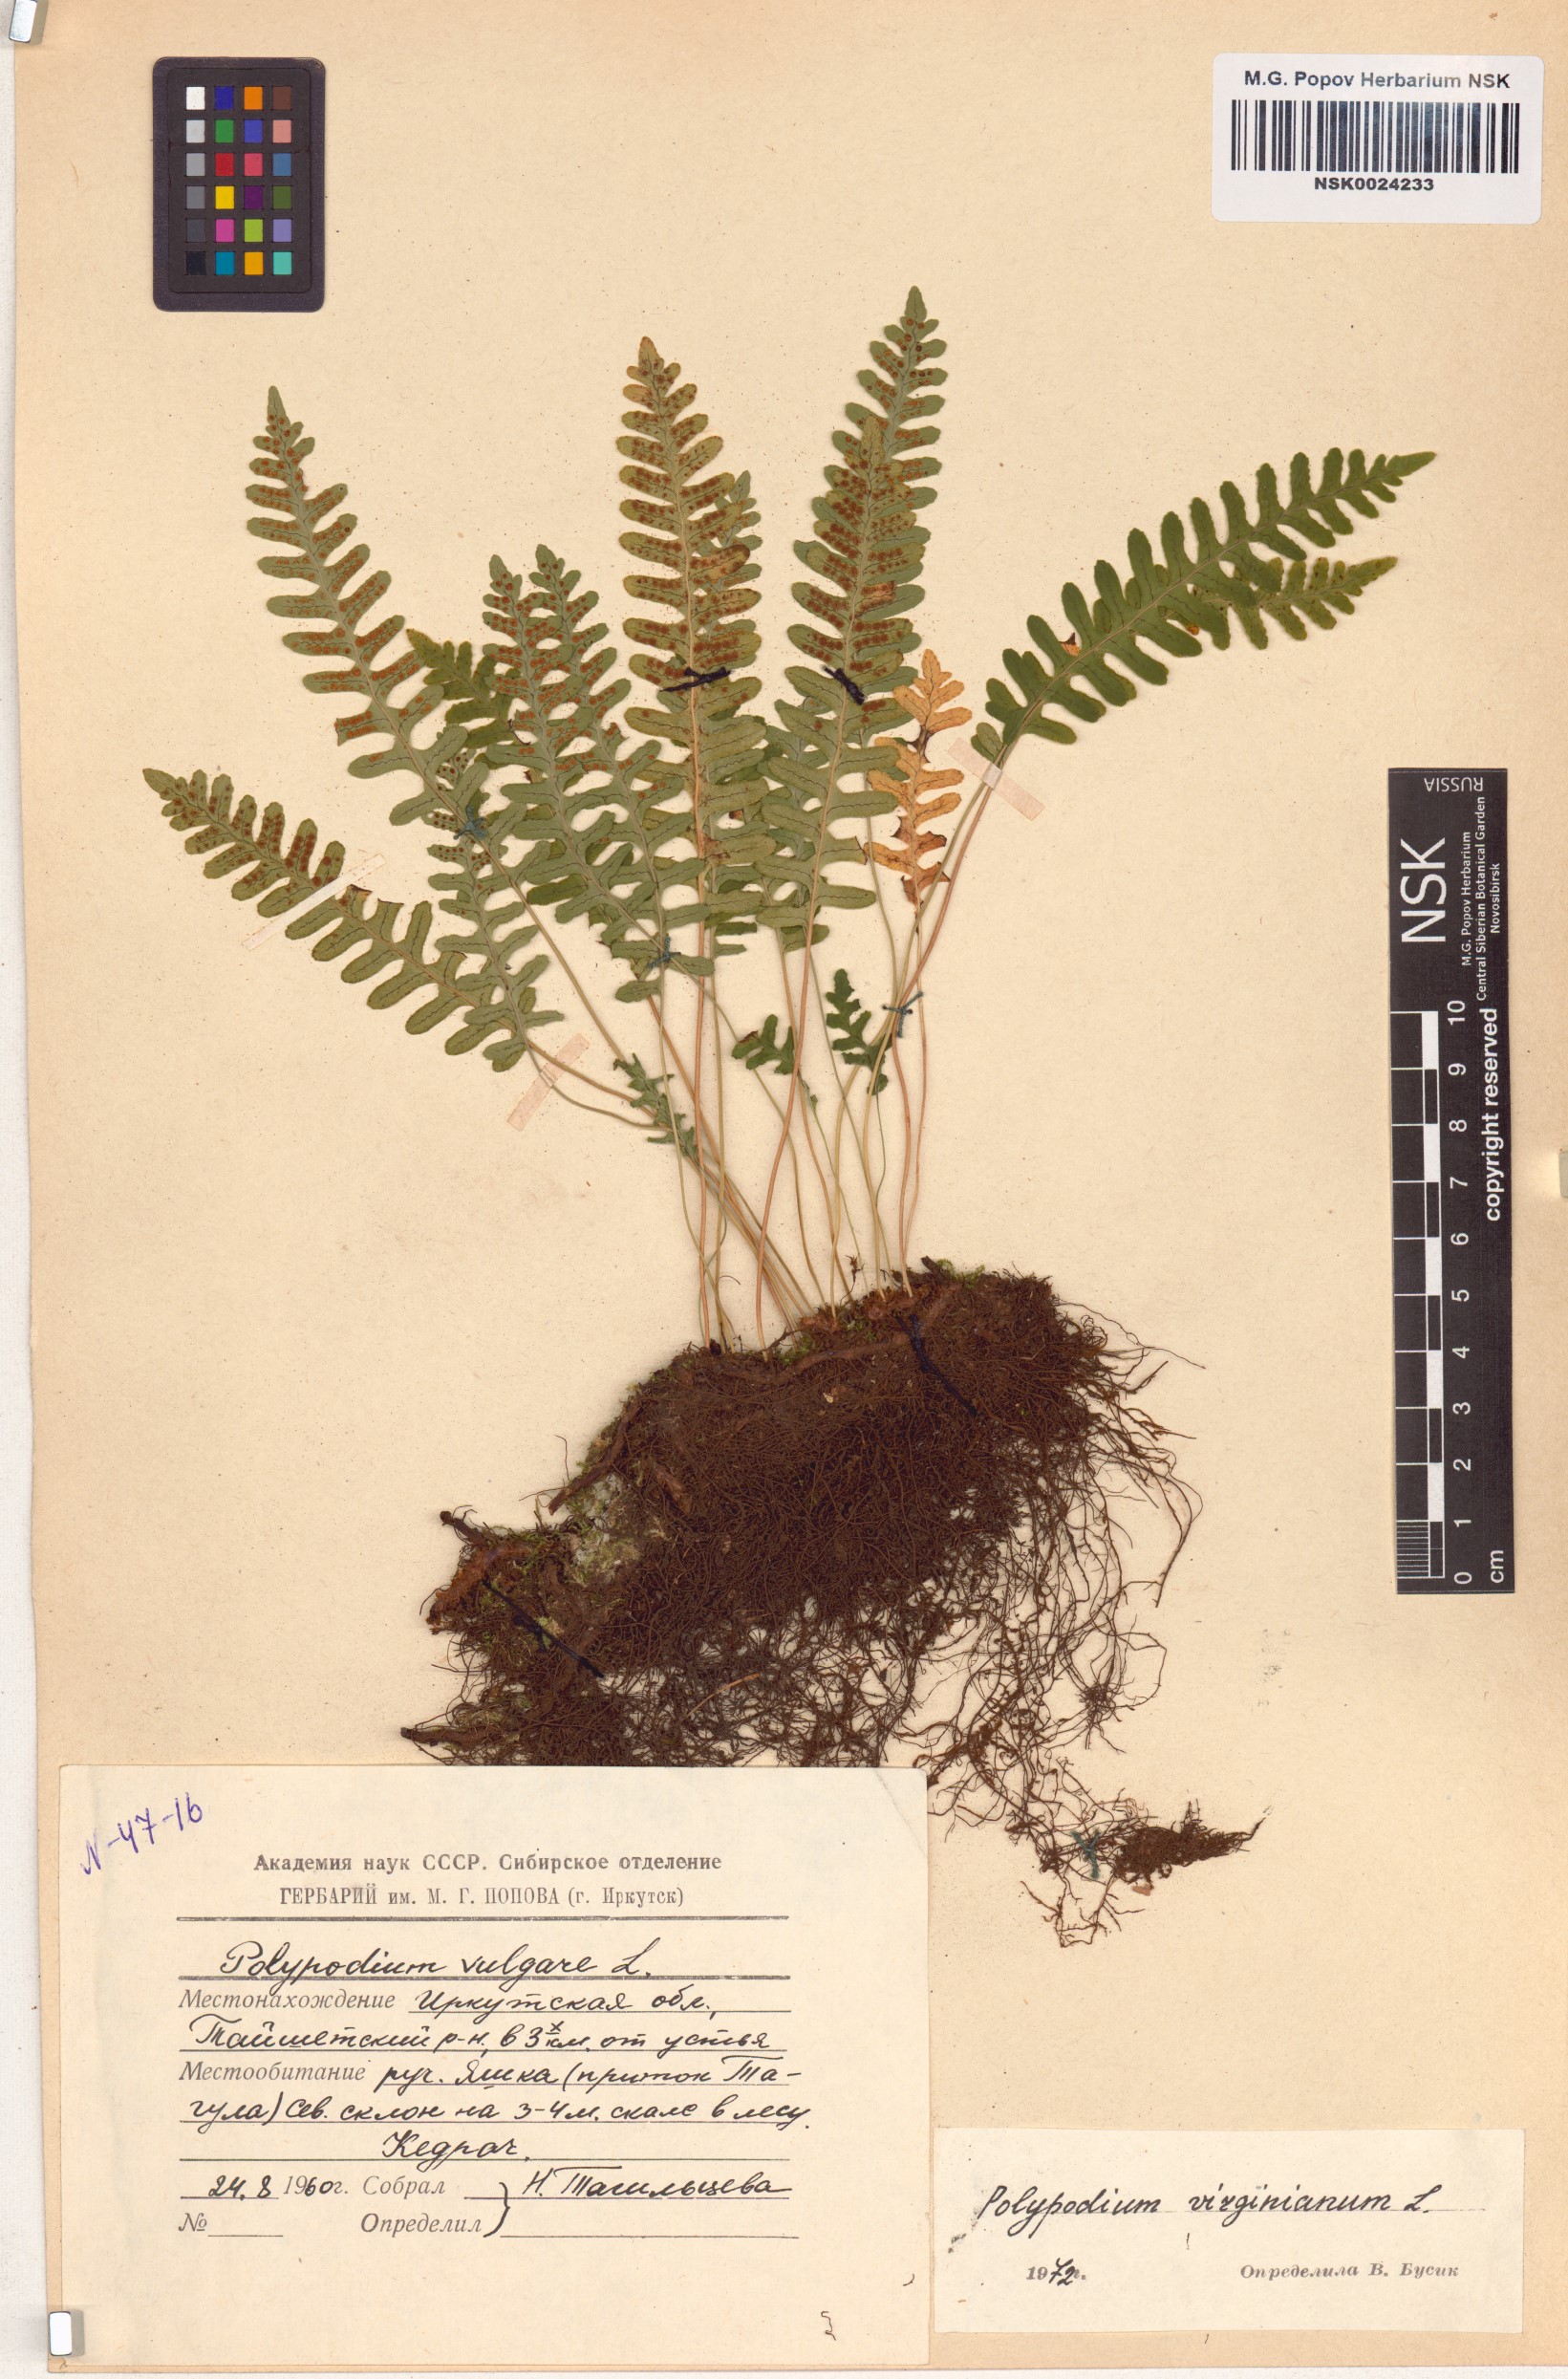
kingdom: Plantae
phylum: Tracheophyta
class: Polypodiopsida
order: Polypodiales
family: Polypodiaceae
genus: Polypodium
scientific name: Polypodium virginianum
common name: American wall fern
